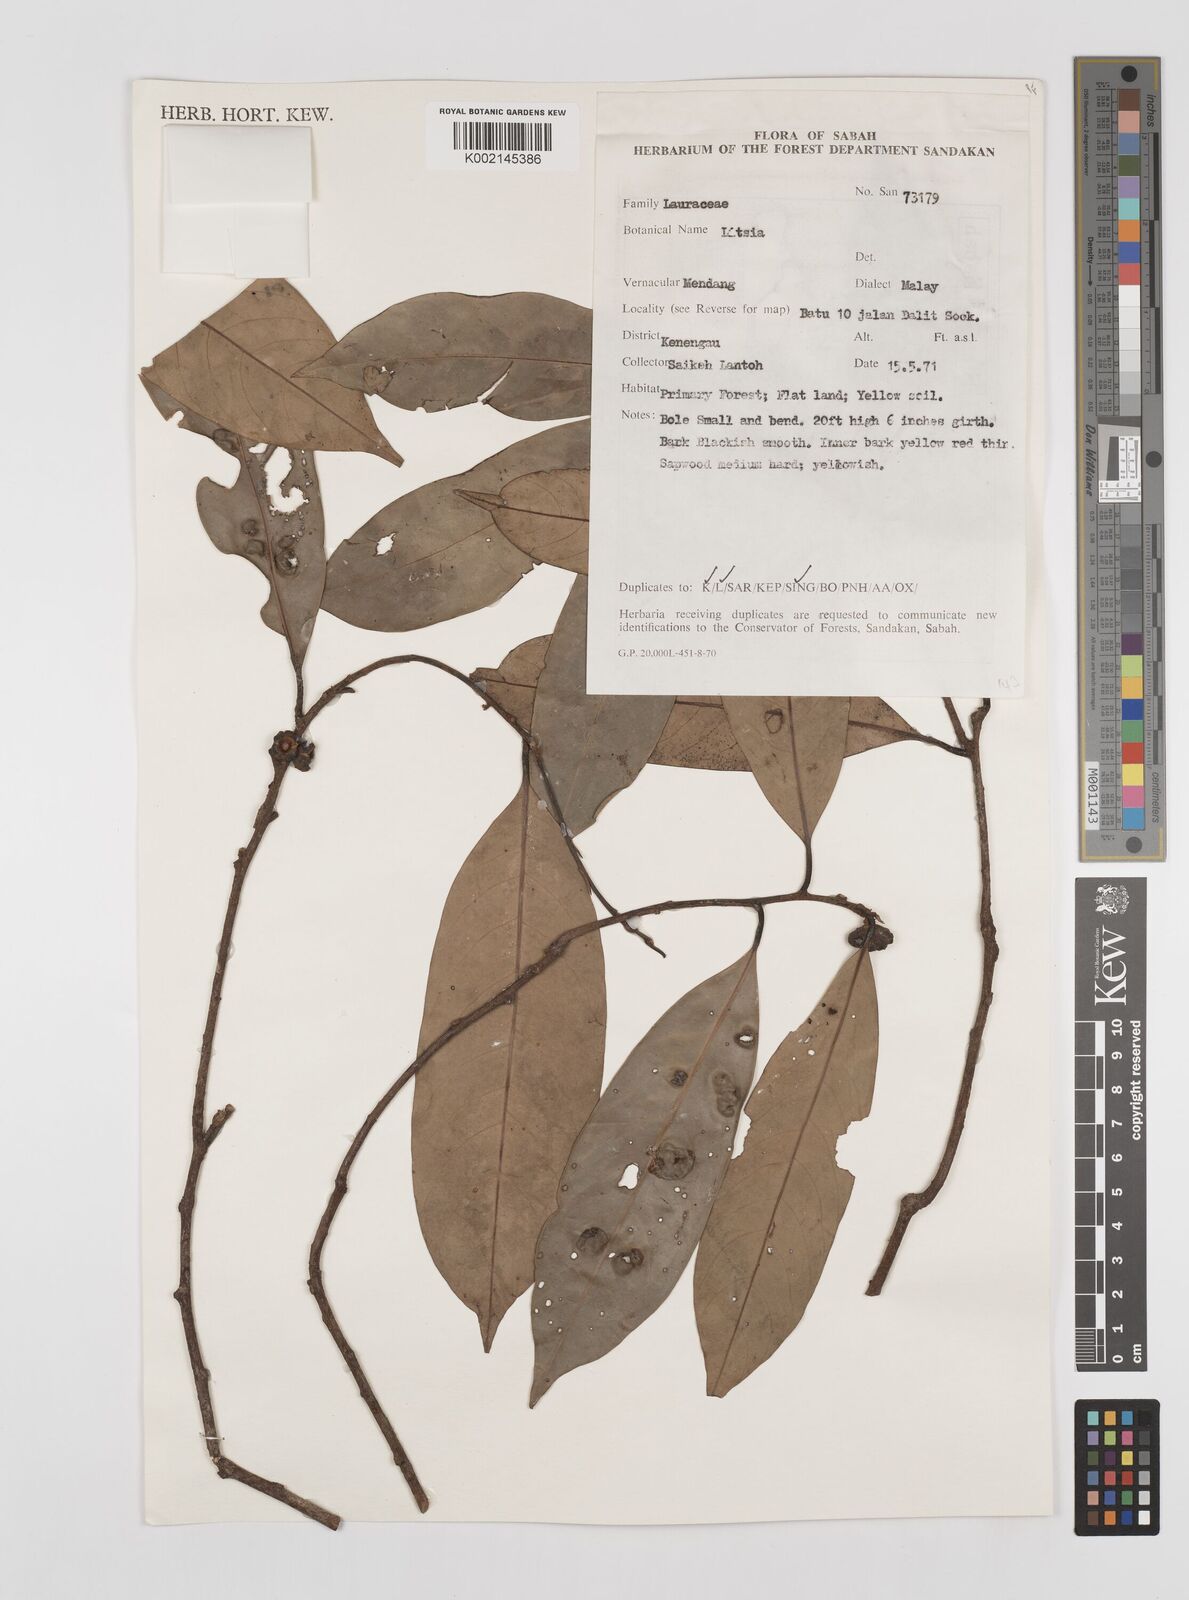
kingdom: Plantae
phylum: Tracheophyta
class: Magnoliopsida
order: Laurales
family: Lauraceae
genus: Litsea
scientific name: Litsea
